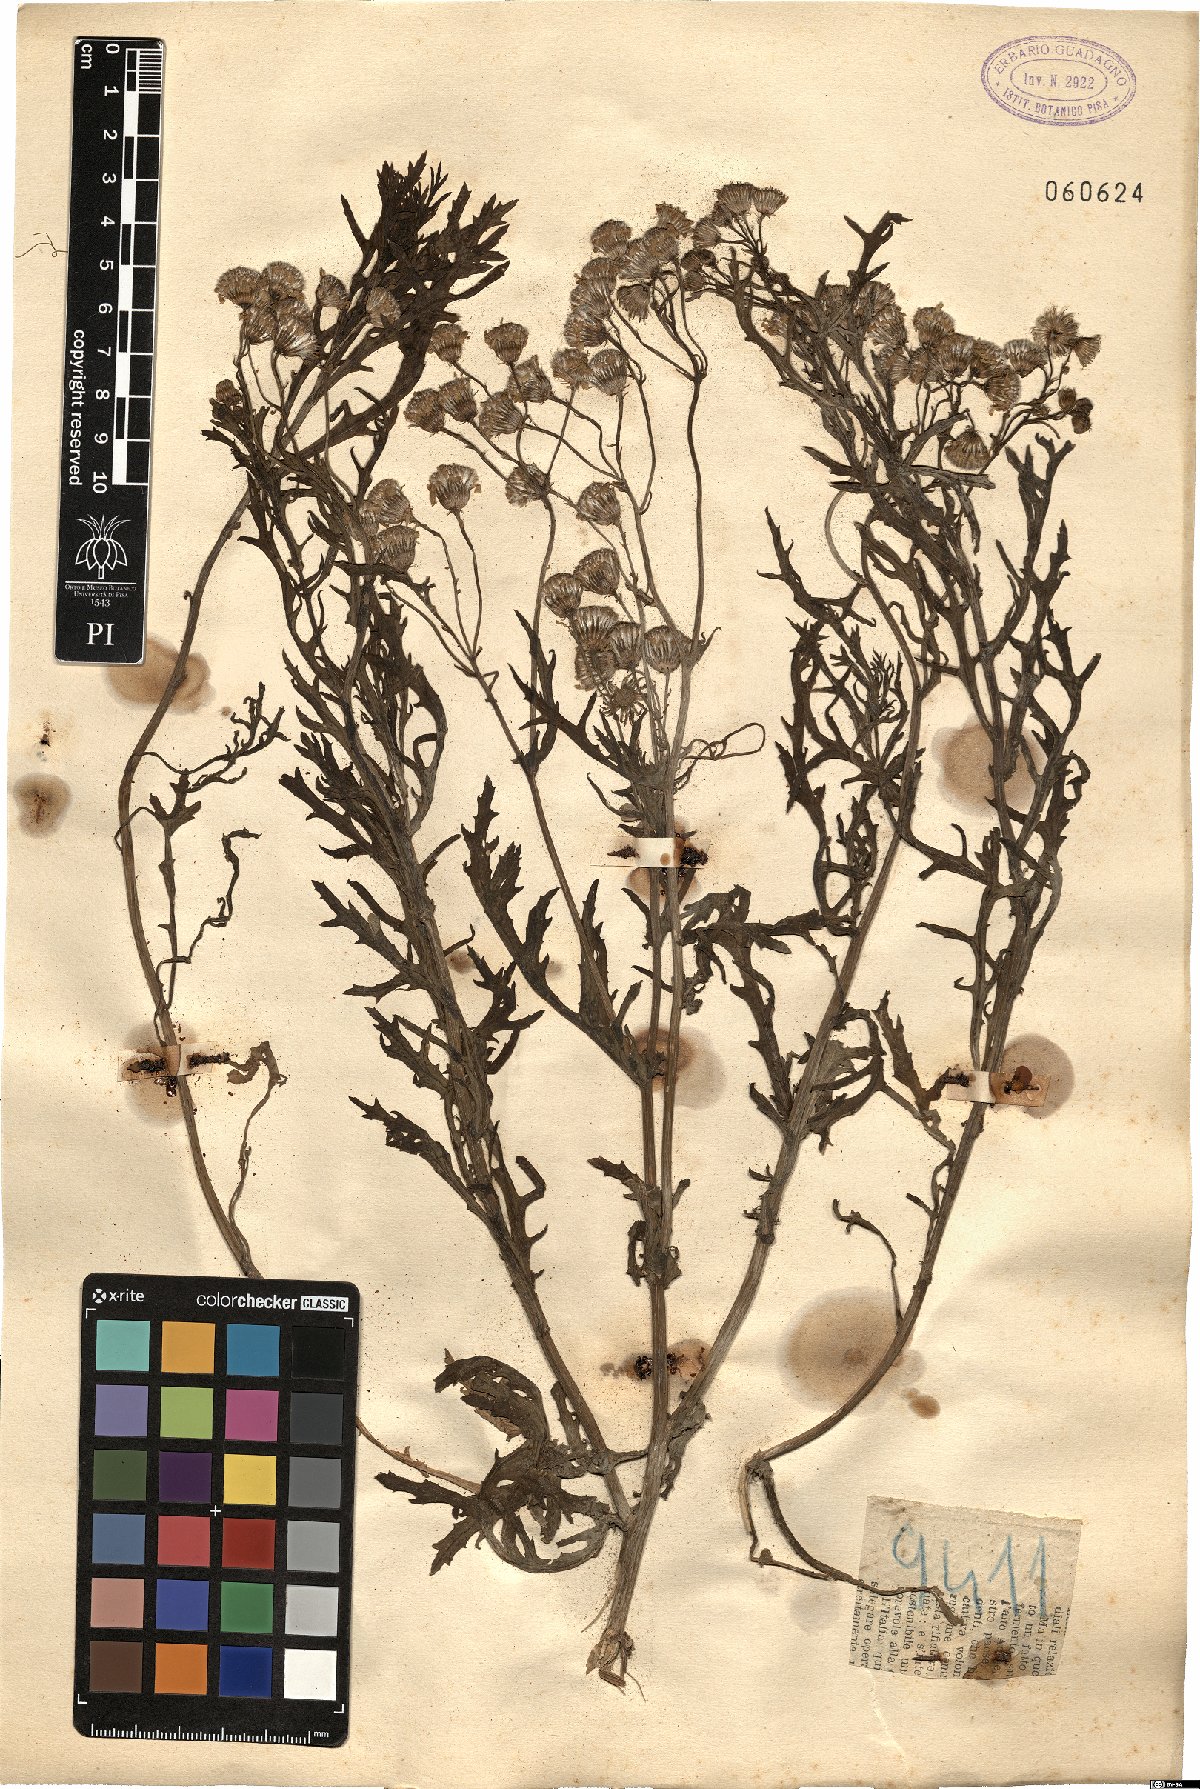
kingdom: Plantae
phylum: Tracheophyta
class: Magnoliopsida
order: Asterales
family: Asteraceae
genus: Senecio
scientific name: Senecio
